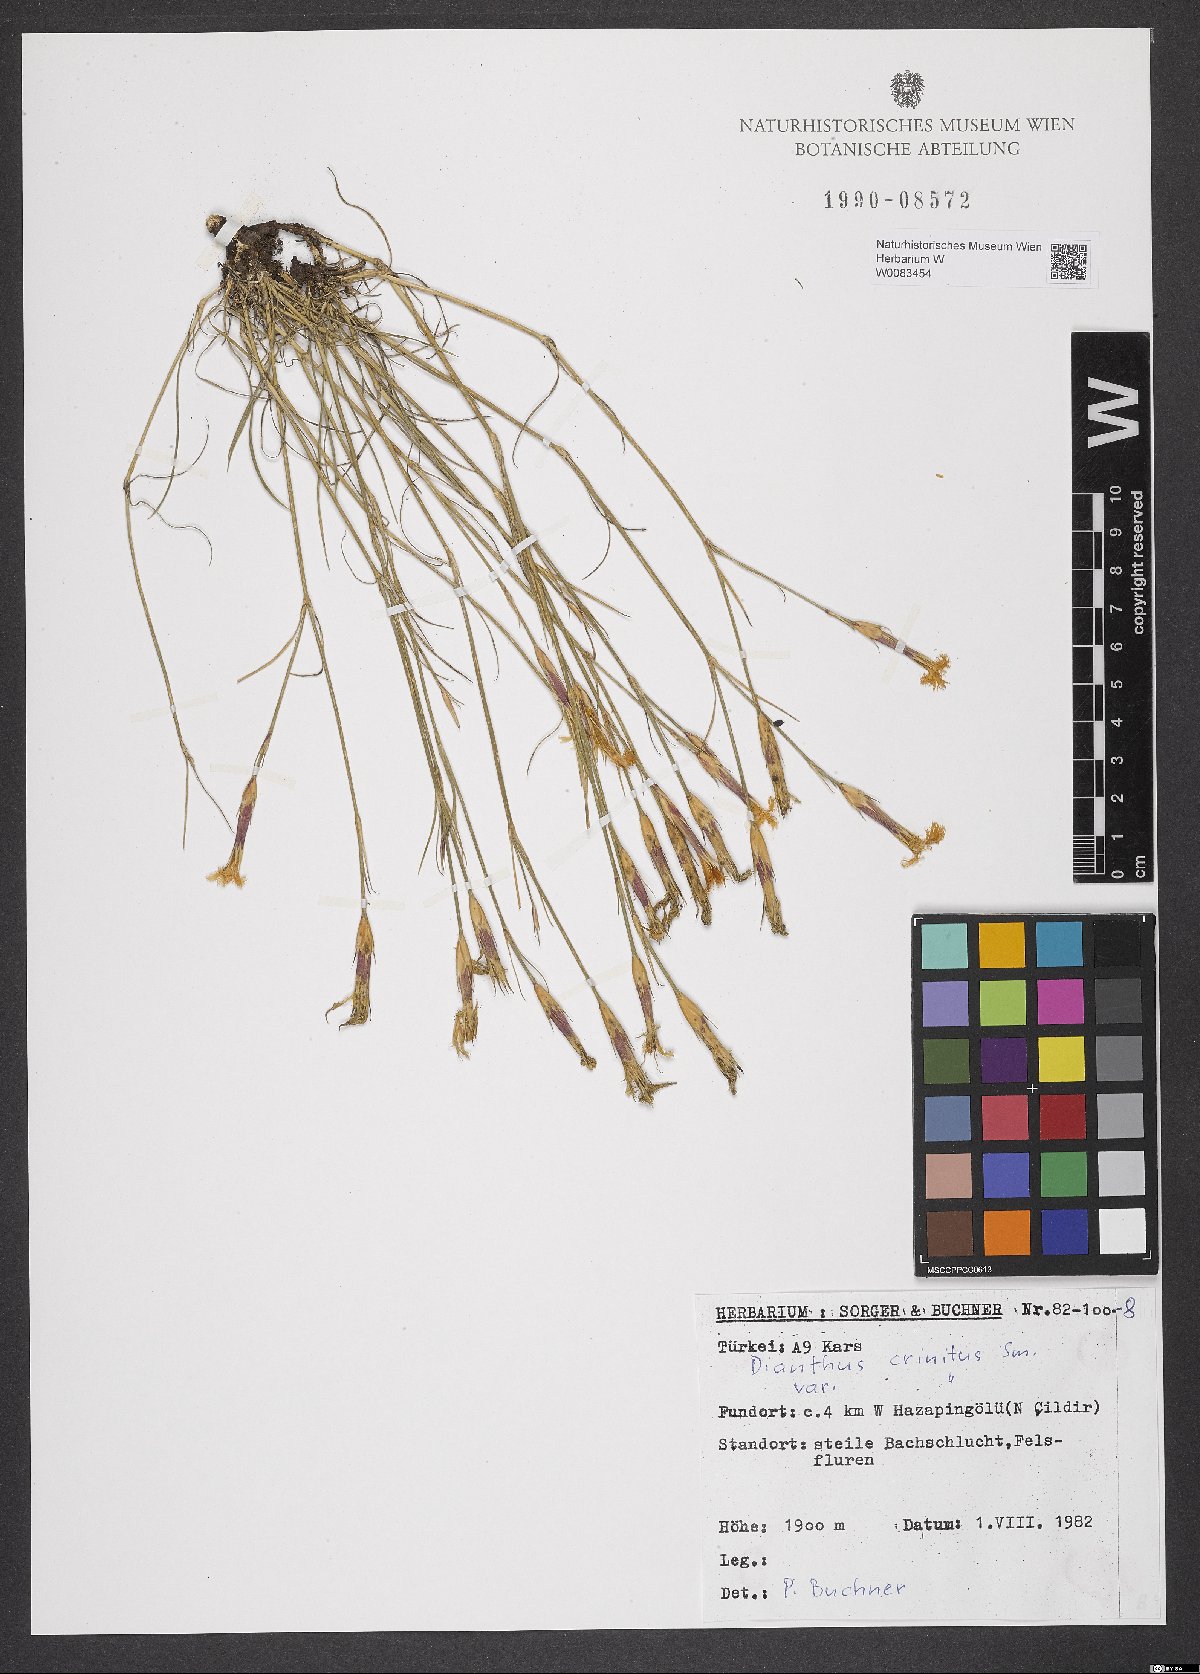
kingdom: Plantae
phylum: Tracheophyta
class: Magnoliopsida
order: Caryophyllales
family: Caryophyllaceae
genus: Dianthus
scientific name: Dianthus crinitus
